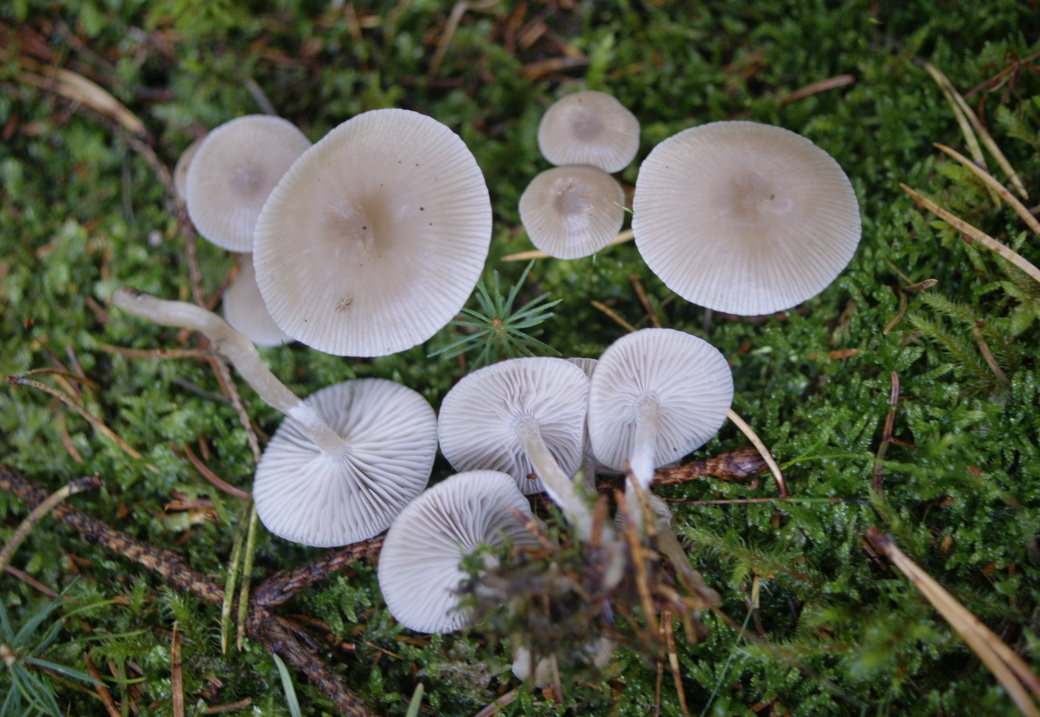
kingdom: Fungi
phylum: Basidiomycota
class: Agaricomycetes
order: Agaricales
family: Tricholomataceae
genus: Clitocybe
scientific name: Clitocybe vibecina
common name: randstribet tragthat
